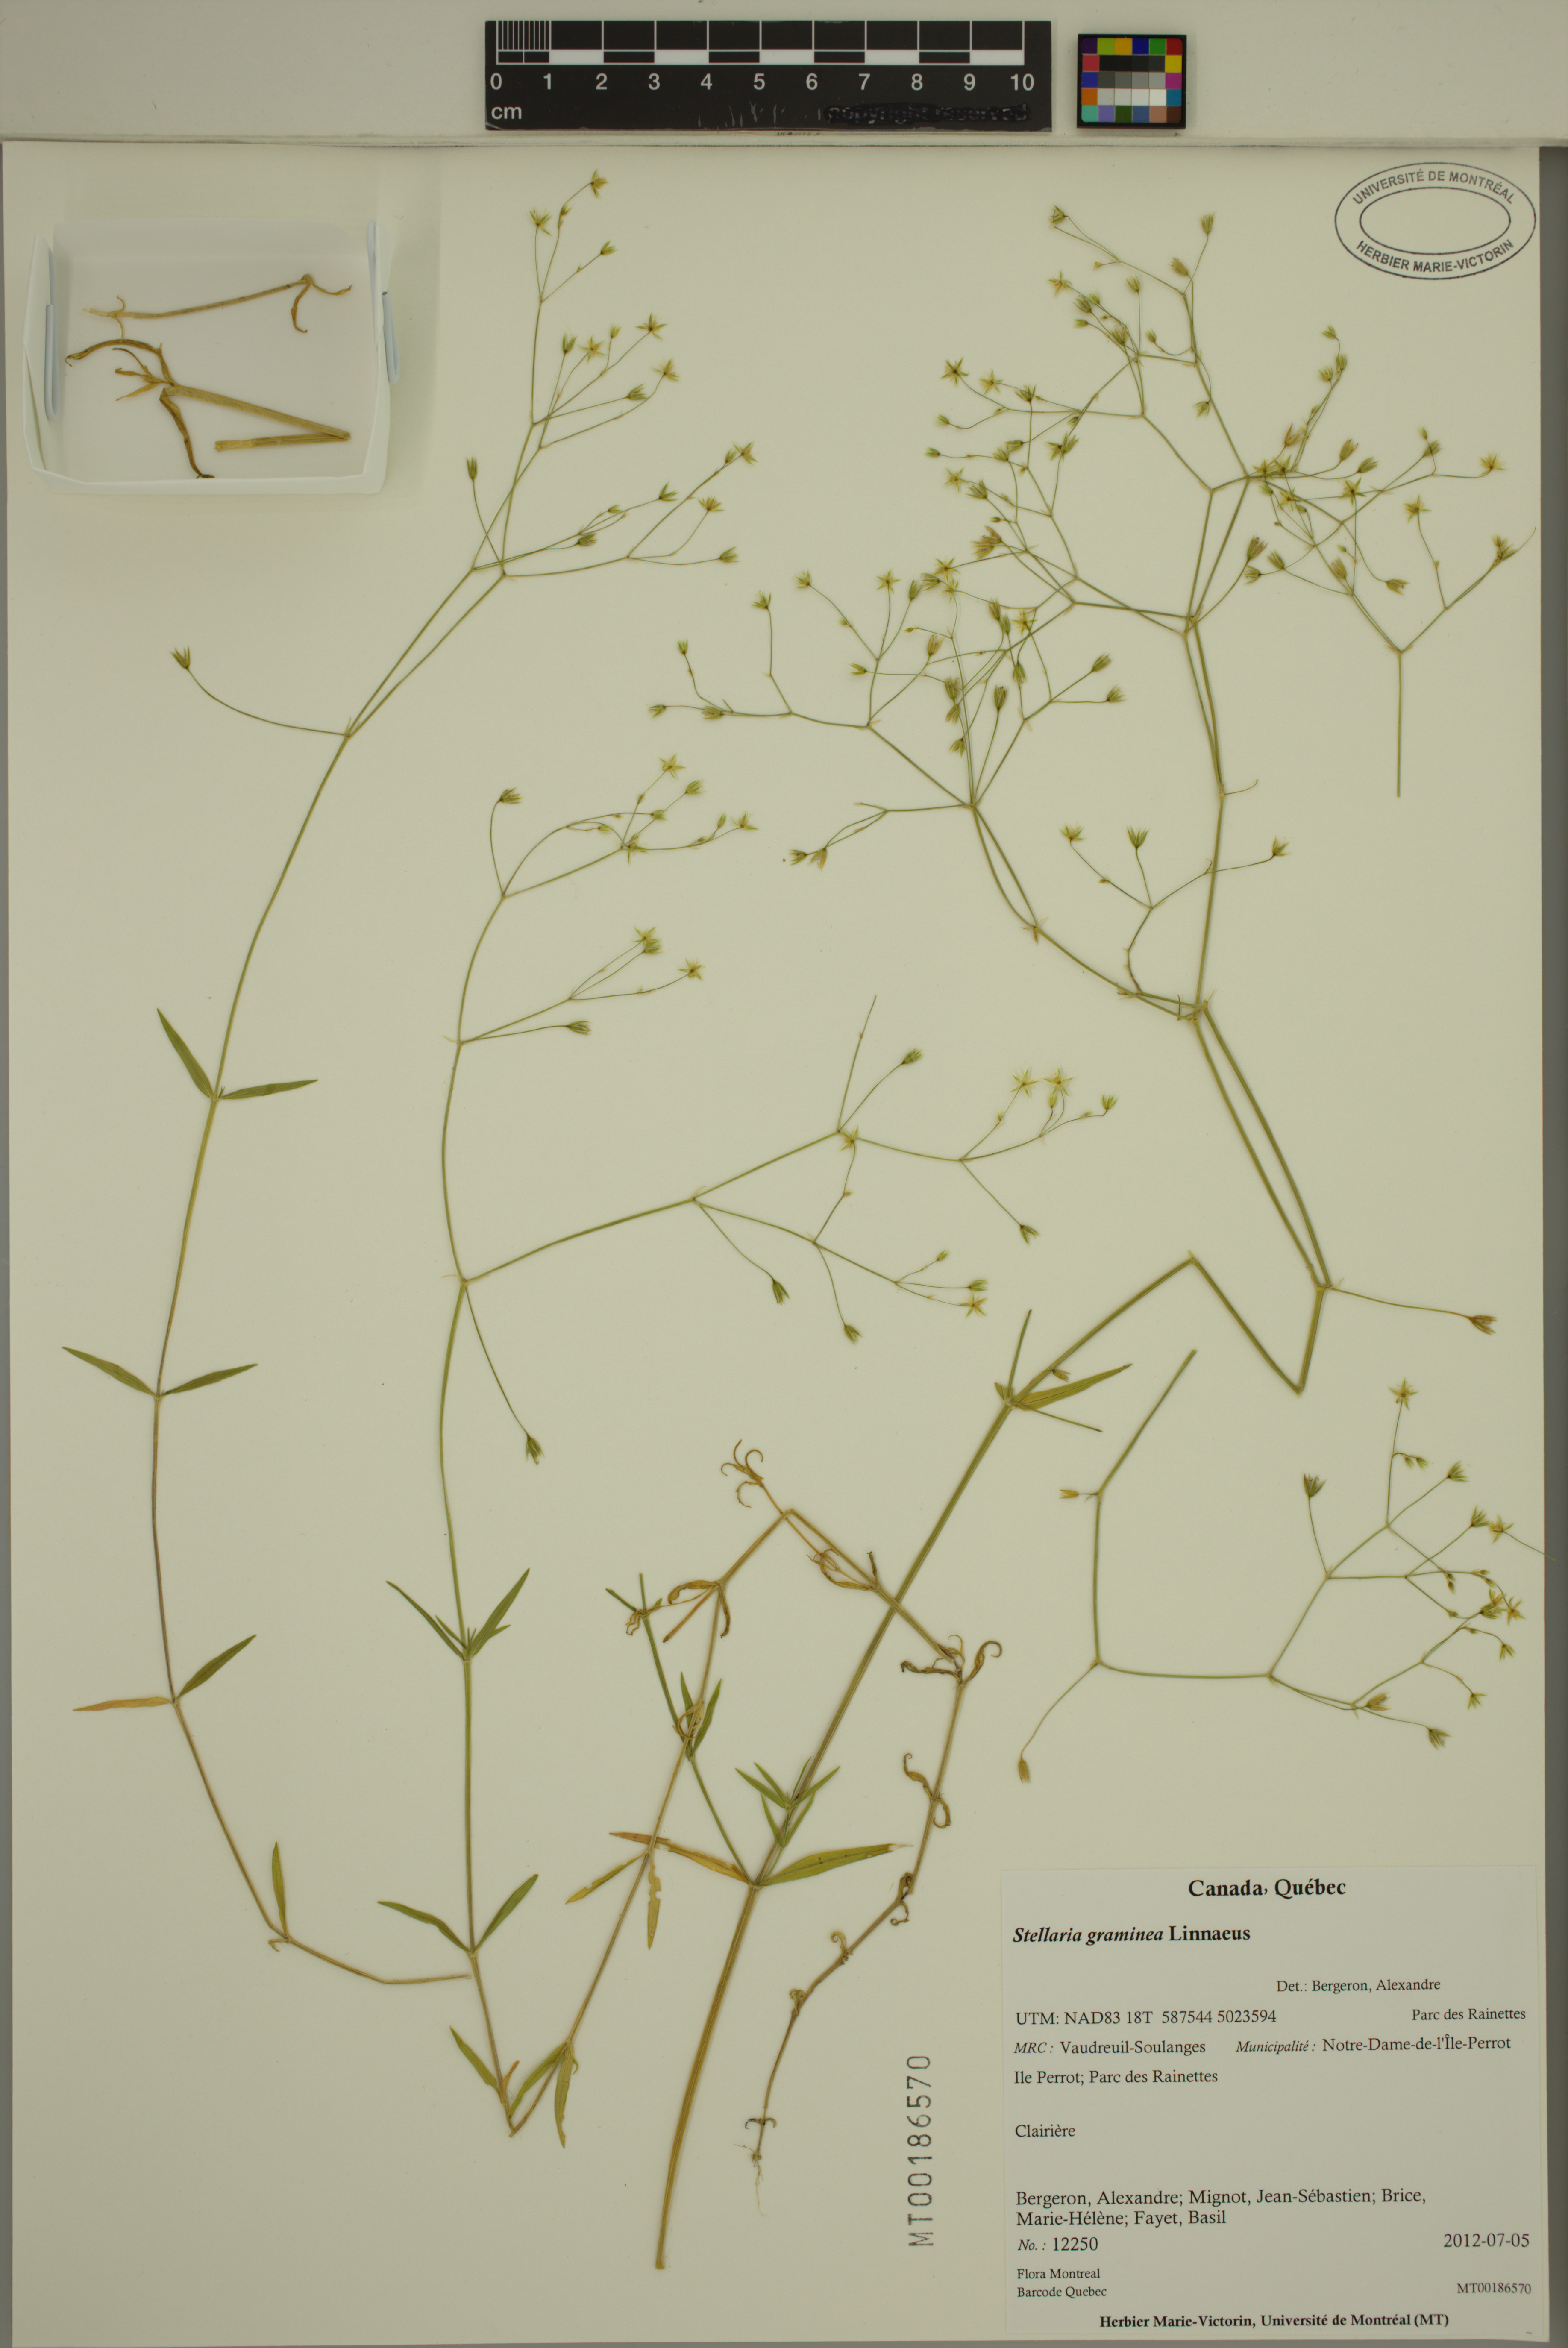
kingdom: Plantae
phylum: Tracheophyta
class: Magnoliopsida
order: Caryophyllales
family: Caryophyllaceae
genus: Stellaria
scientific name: Stellaria graminea
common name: Grass-like starwort
